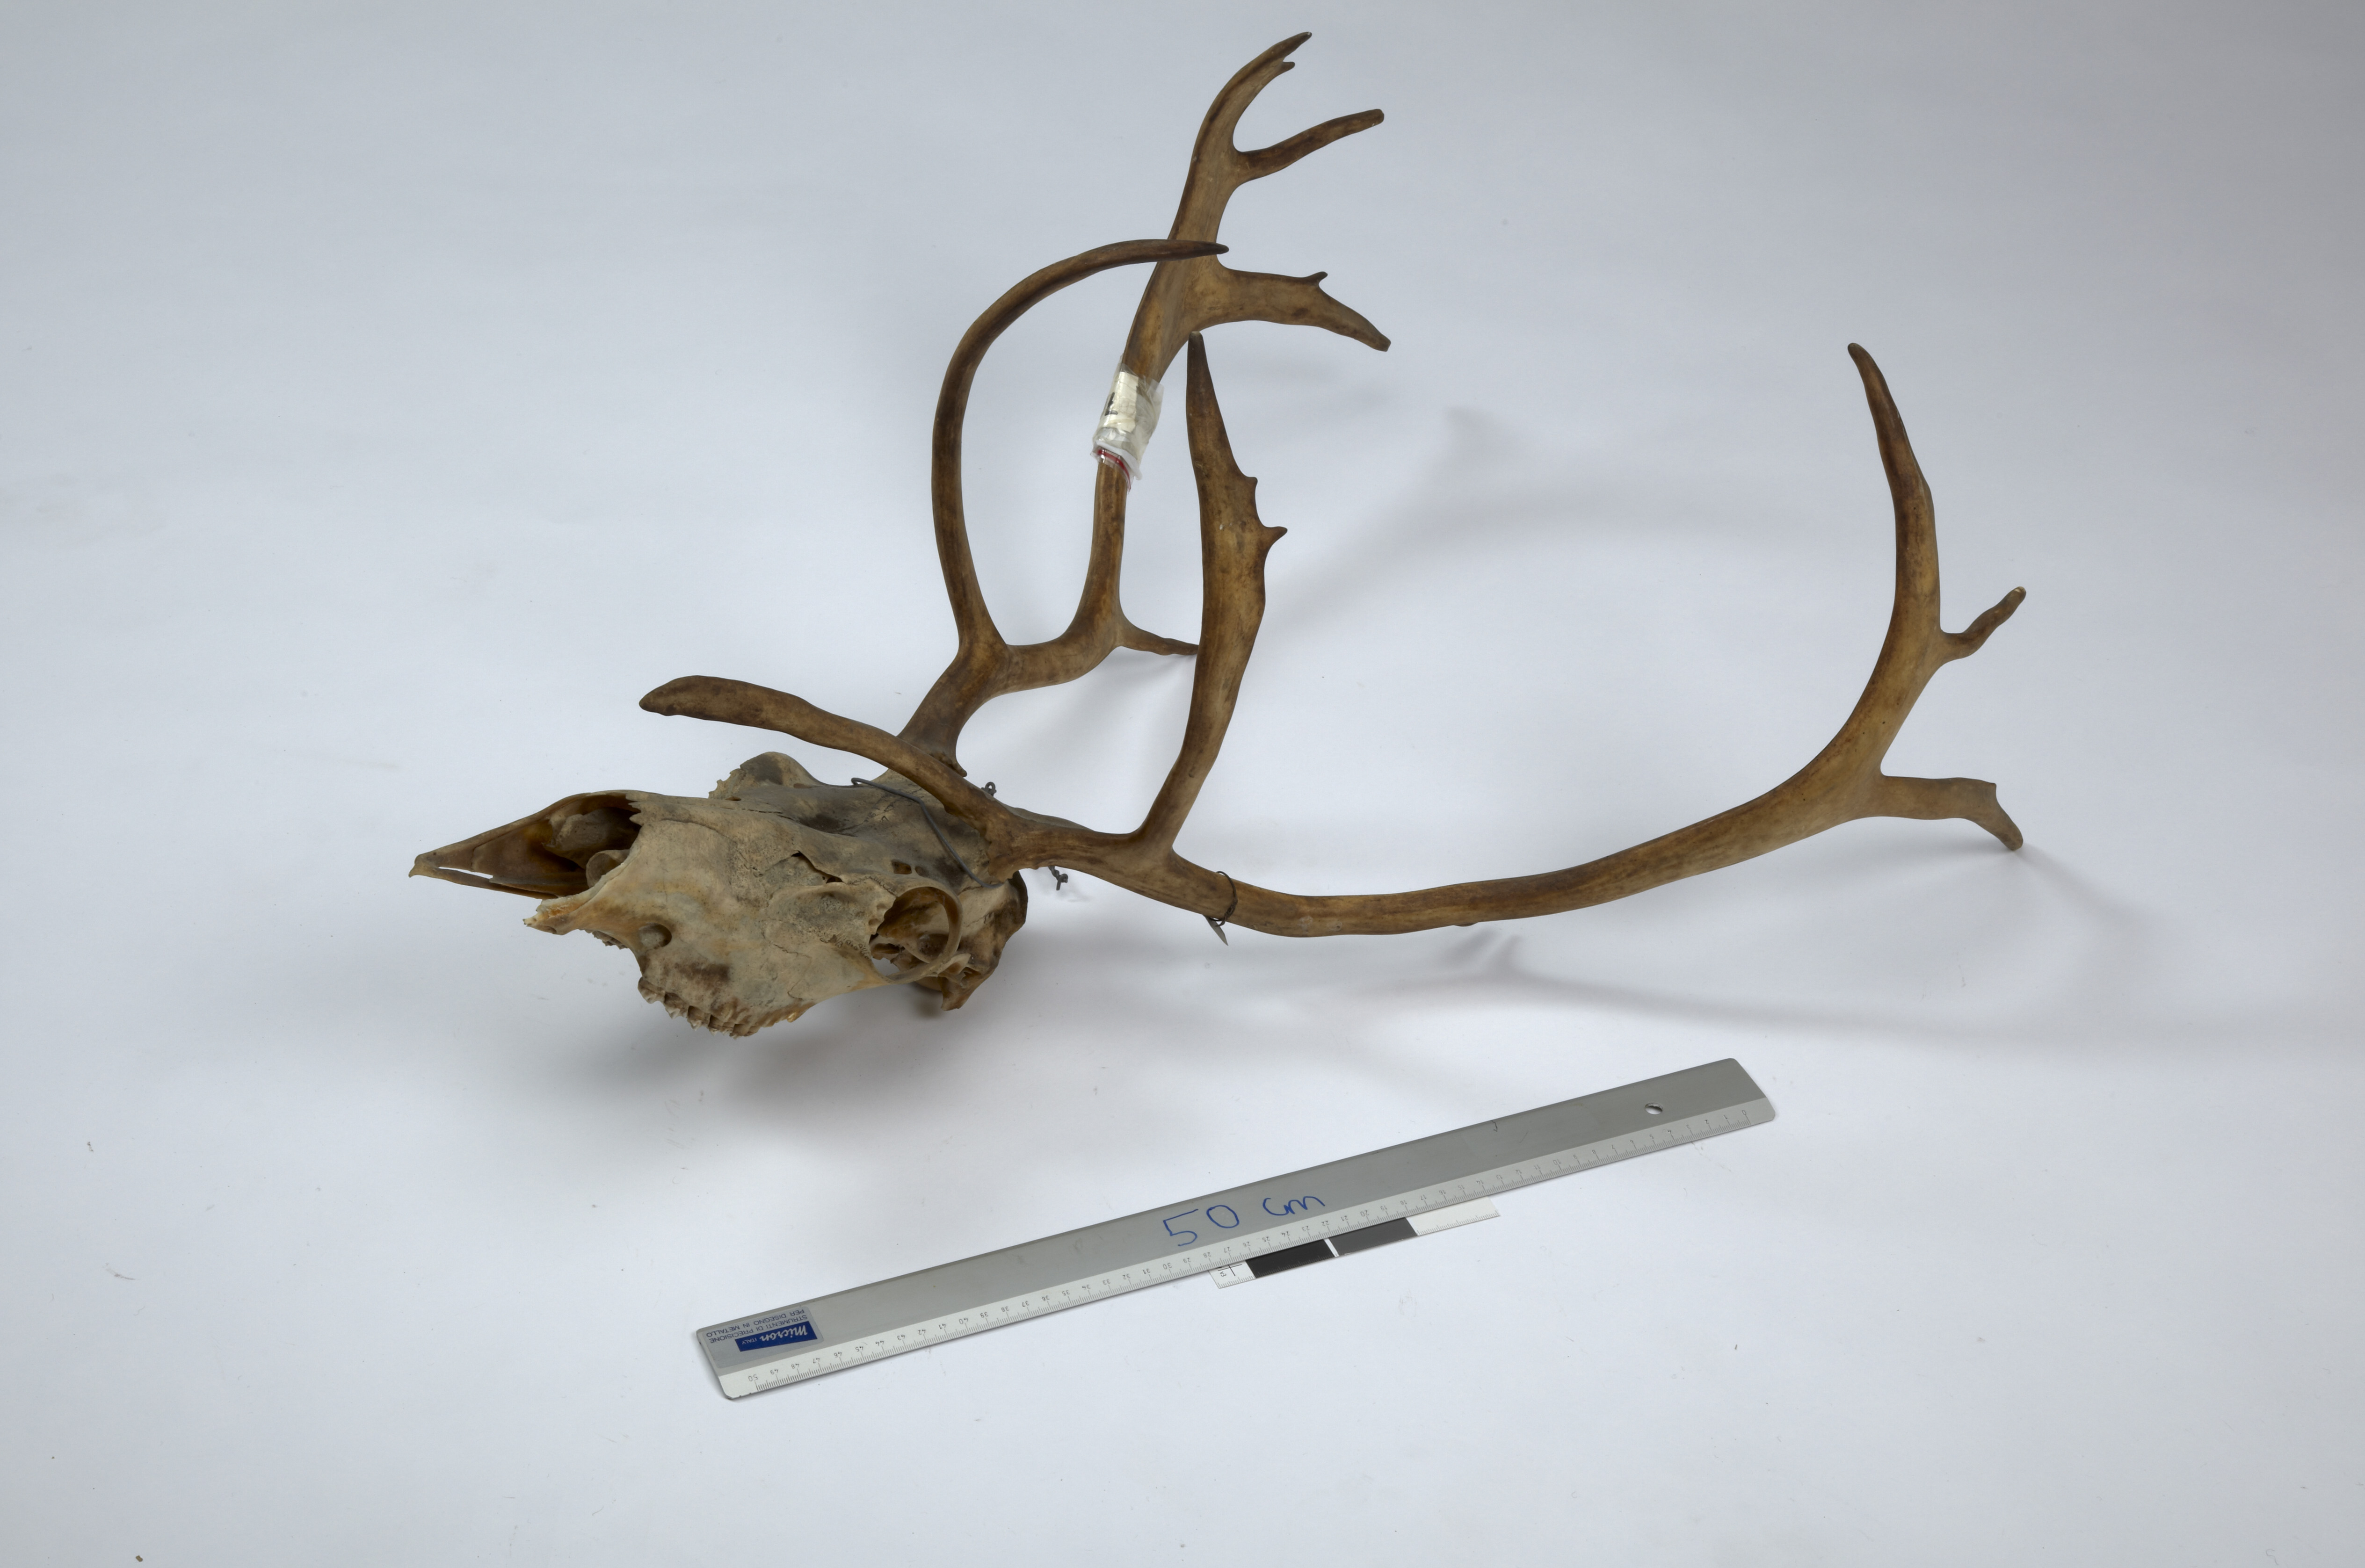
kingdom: Animalia
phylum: Chordata
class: Mammalia
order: Artiodactyla
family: Cervidae
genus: Rangifer
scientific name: Rangifer tarandus
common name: Reindeer
